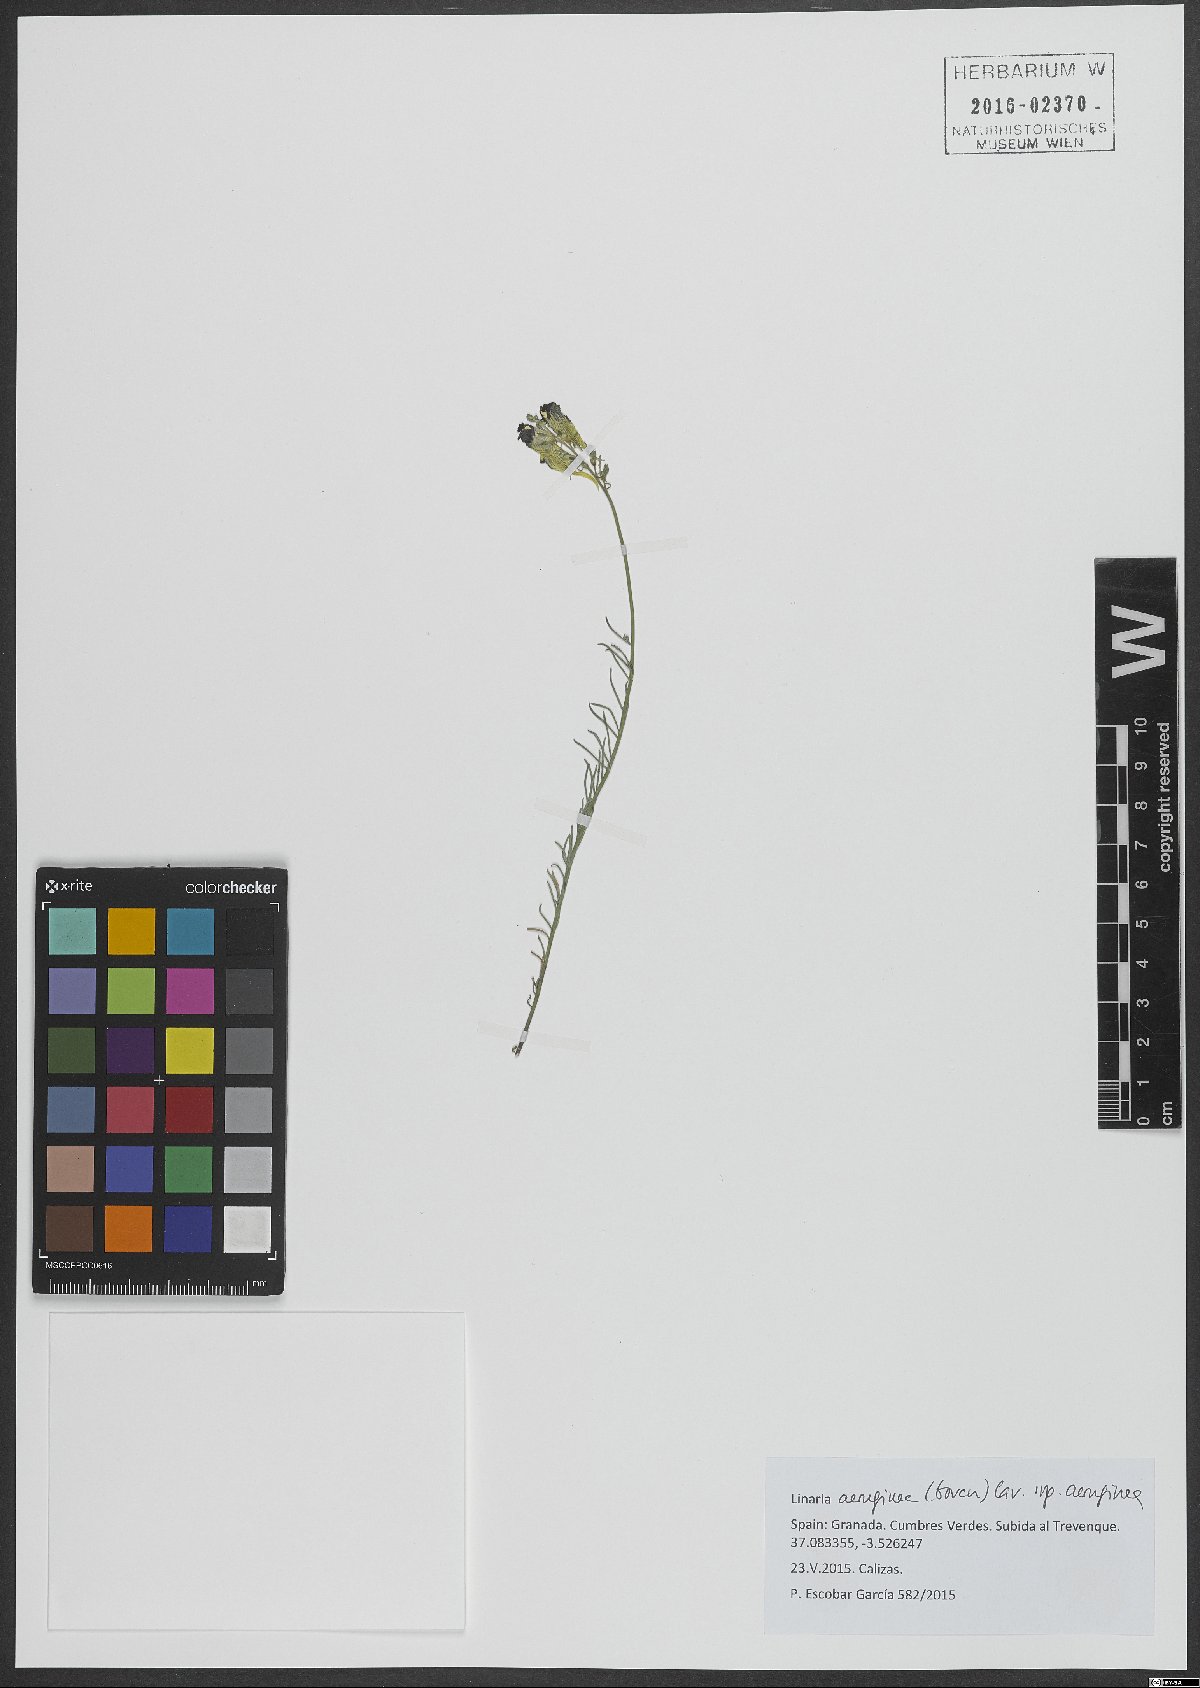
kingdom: Plantae
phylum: Tracheophyta
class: Magnoliopsida
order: Lamiales
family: Plantaginaceae
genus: Linaria
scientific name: Linaria aeruginea
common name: Roadside toadflax
